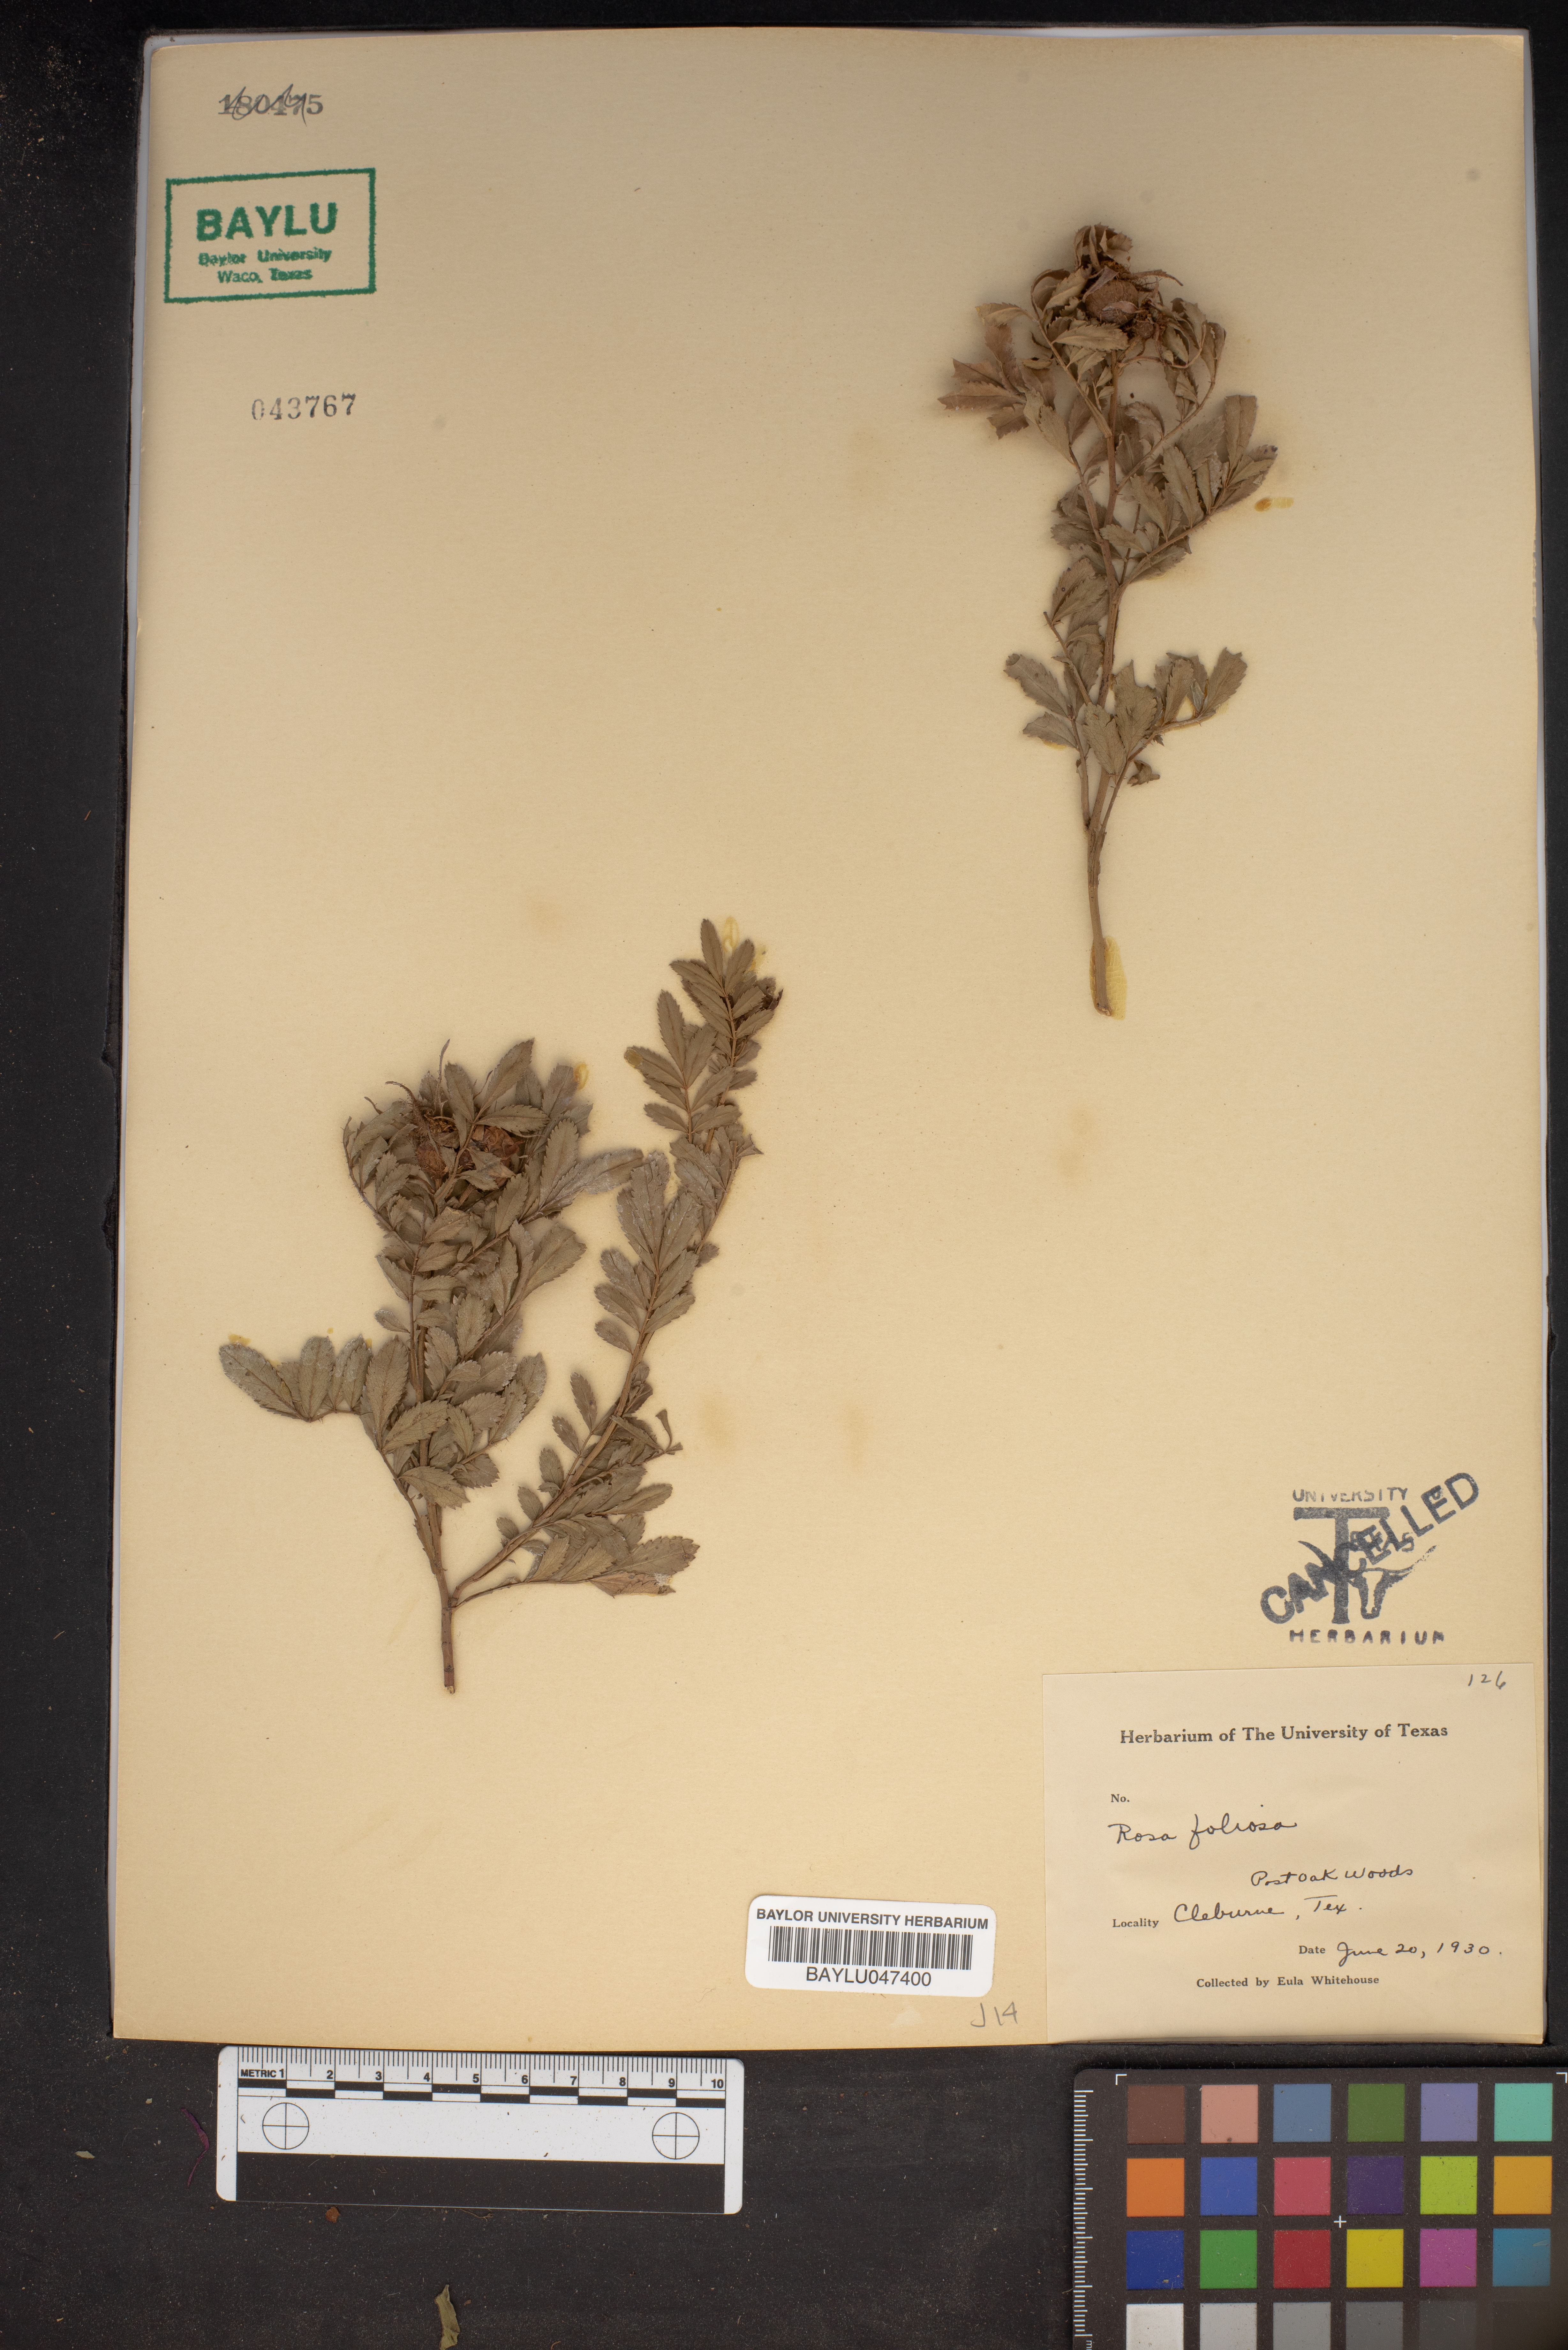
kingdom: Plantae
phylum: Tracheophyta
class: Magnoliopsida
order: Rosales
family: Rosaceae
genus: Rosa
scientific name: Rosa foliolosa
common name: White prairie rose
